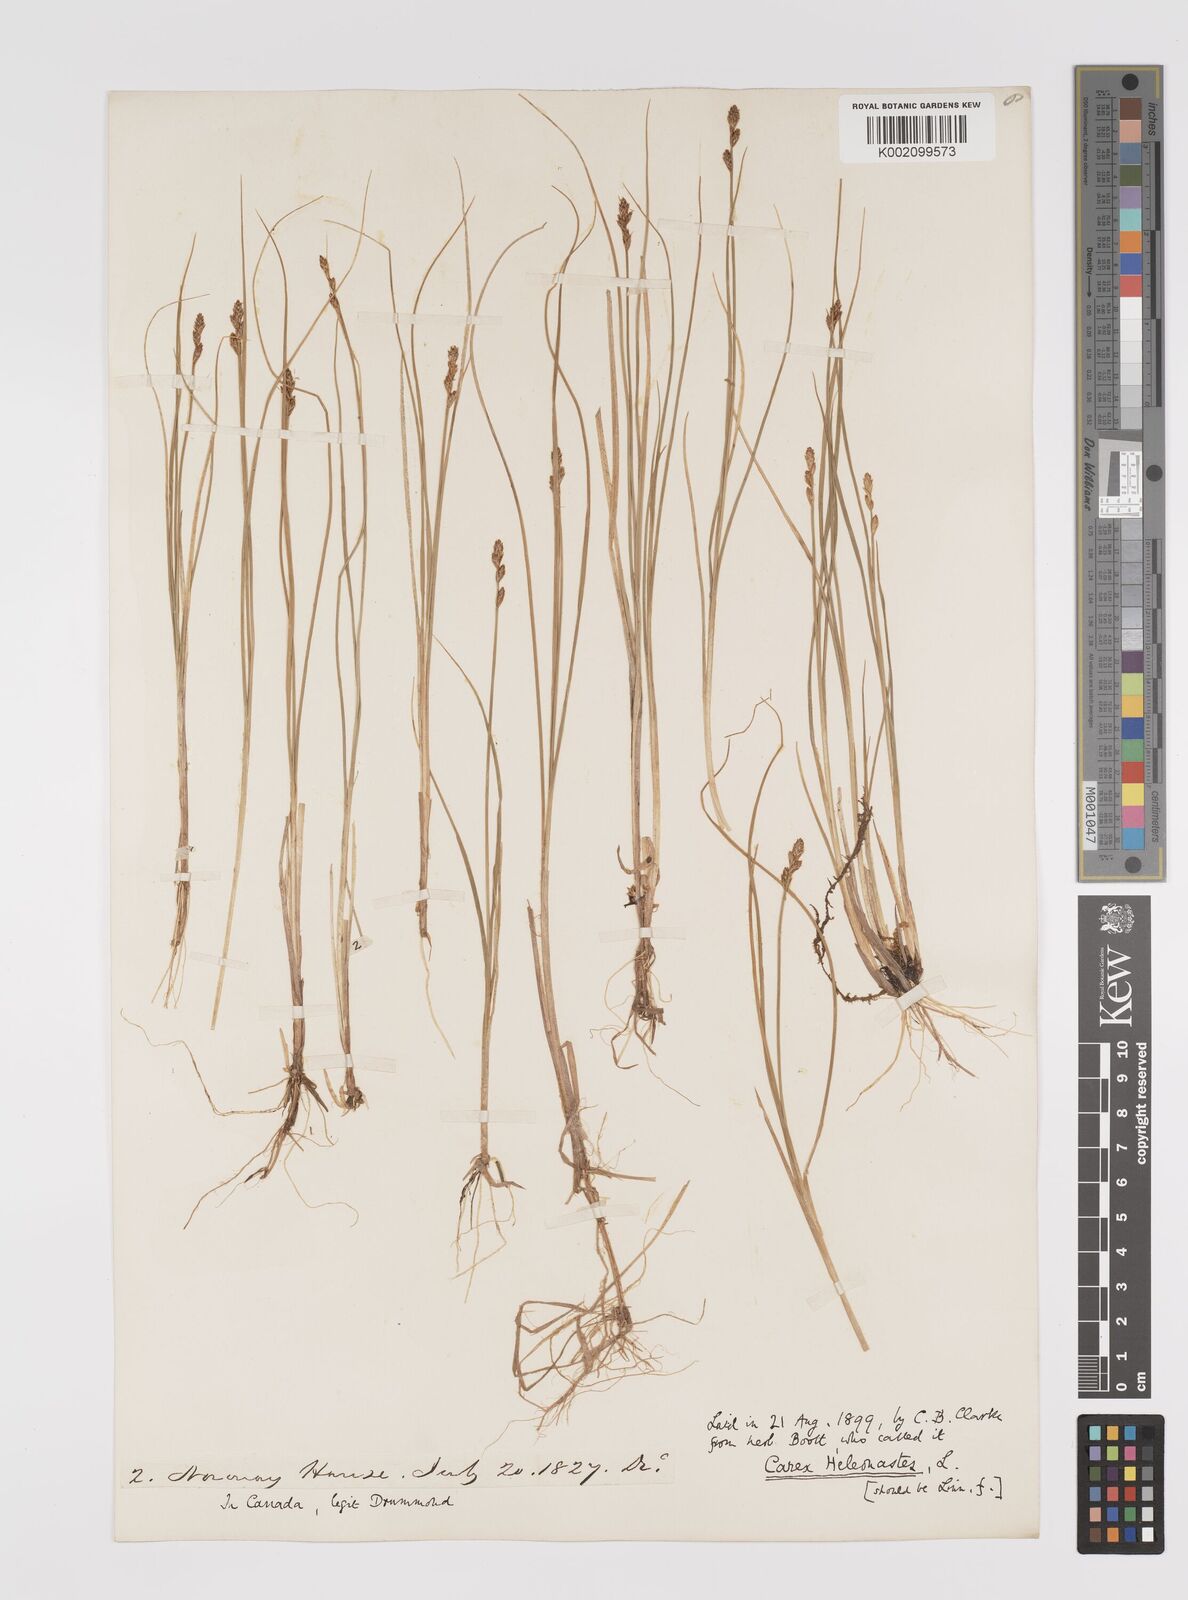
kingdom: Plantae
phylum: Tracheophyta
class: Liliopsida
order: Poales
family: Cyperaceae
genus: Carex
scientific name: Carex heleonastes
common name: Hudson bay sedge
